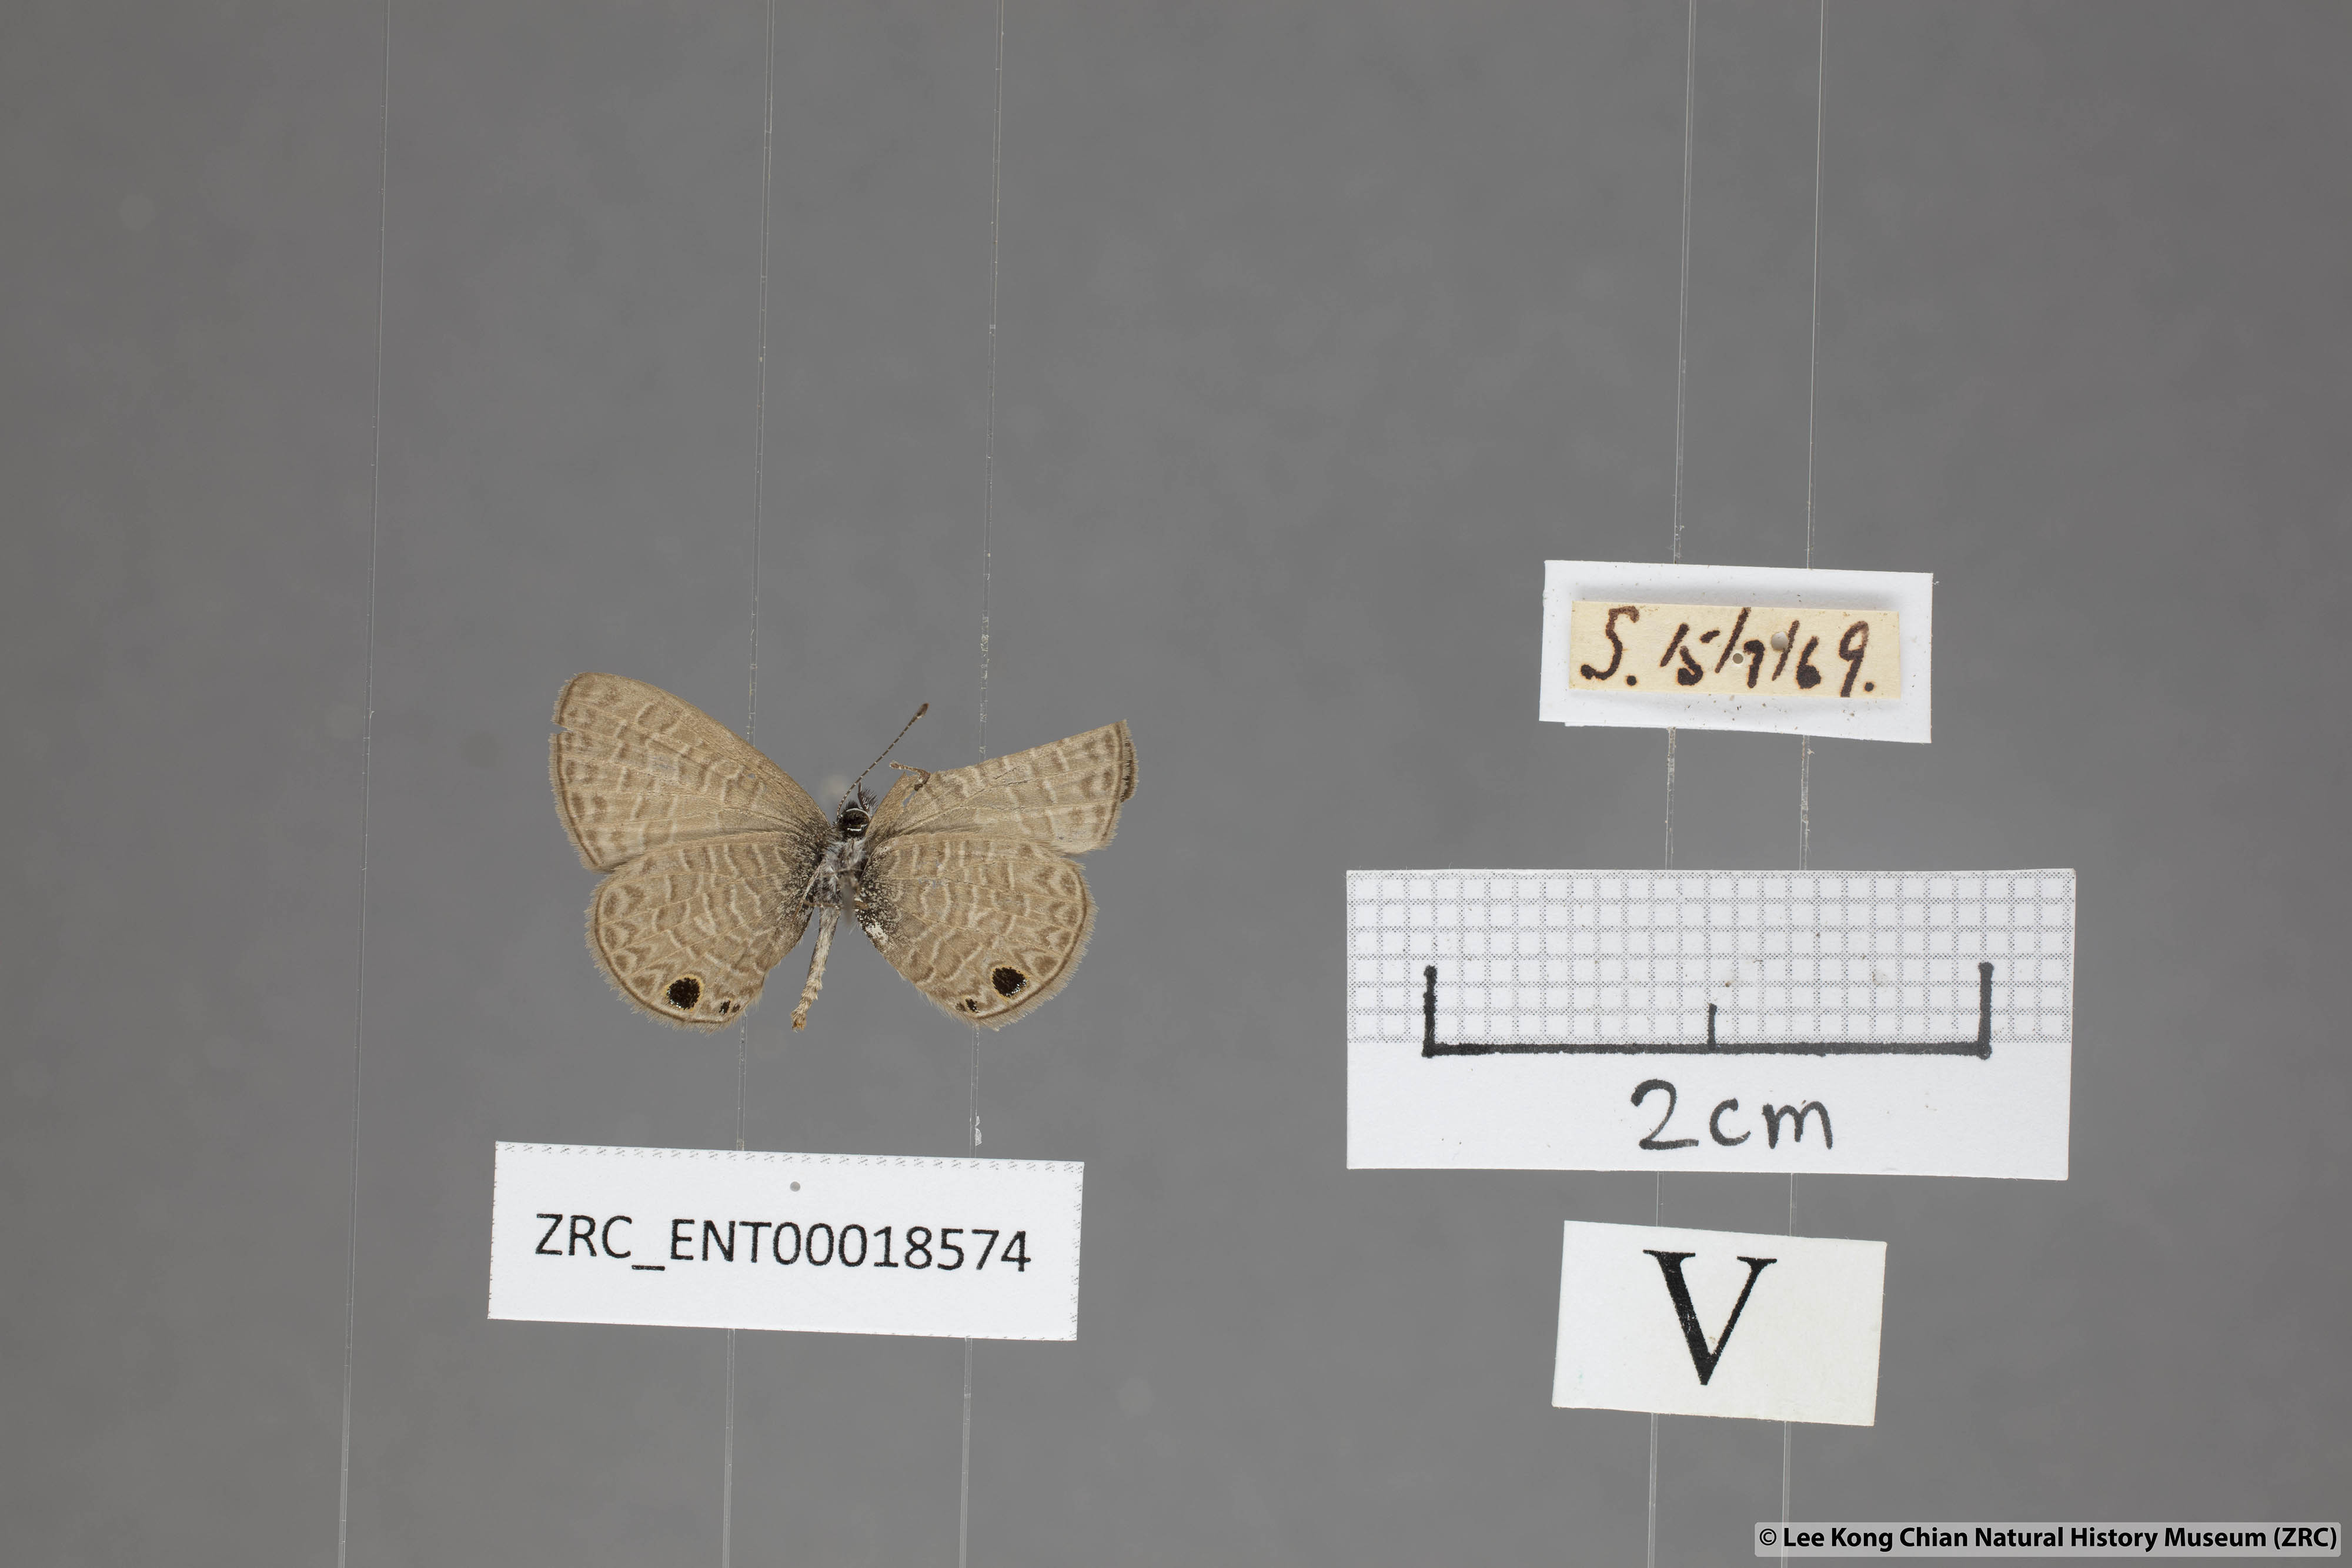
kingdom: Animalia
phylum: Arthropoda
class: Insecta
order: Lepidoptera
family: Lycaenidae
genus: Prosotas
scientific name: Prosotas dubiosa
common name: Tailless lineblue
